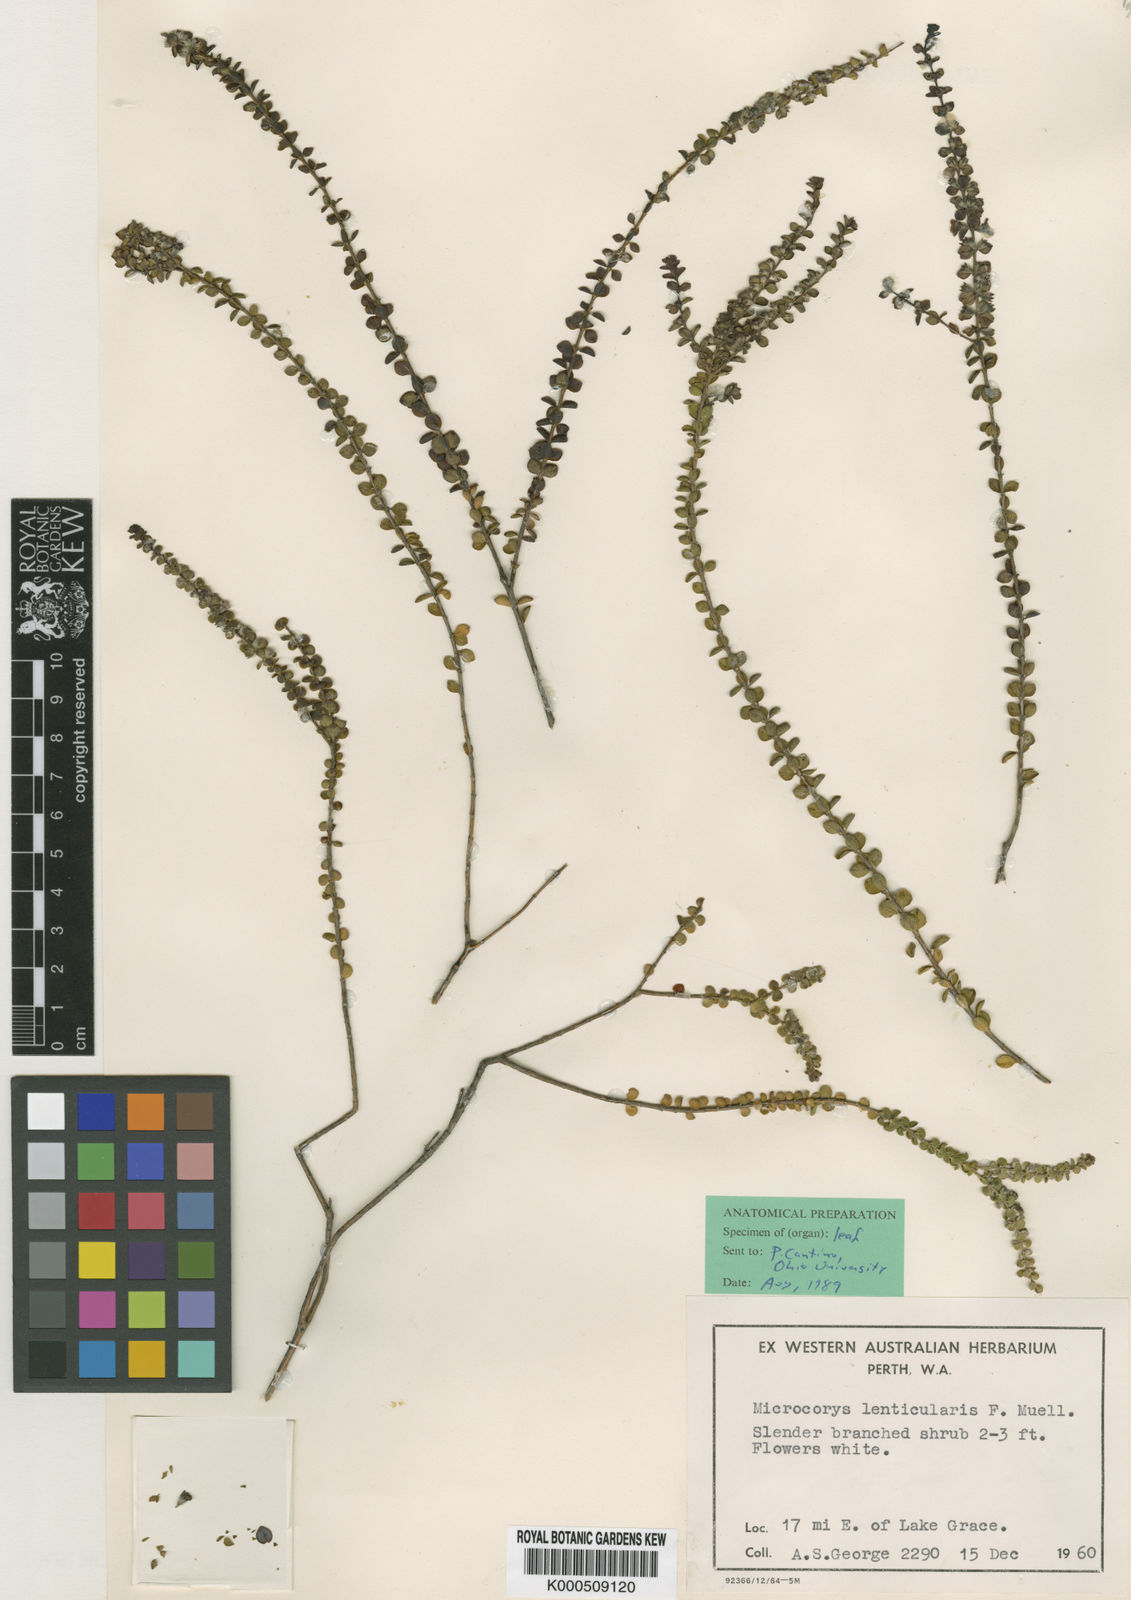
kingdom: Plantae
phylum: Tracheophyta
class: Magnoliopsida
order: Lamiales
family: Lamiaceae
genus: Microcorys
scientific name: Microcorys lenticularis
